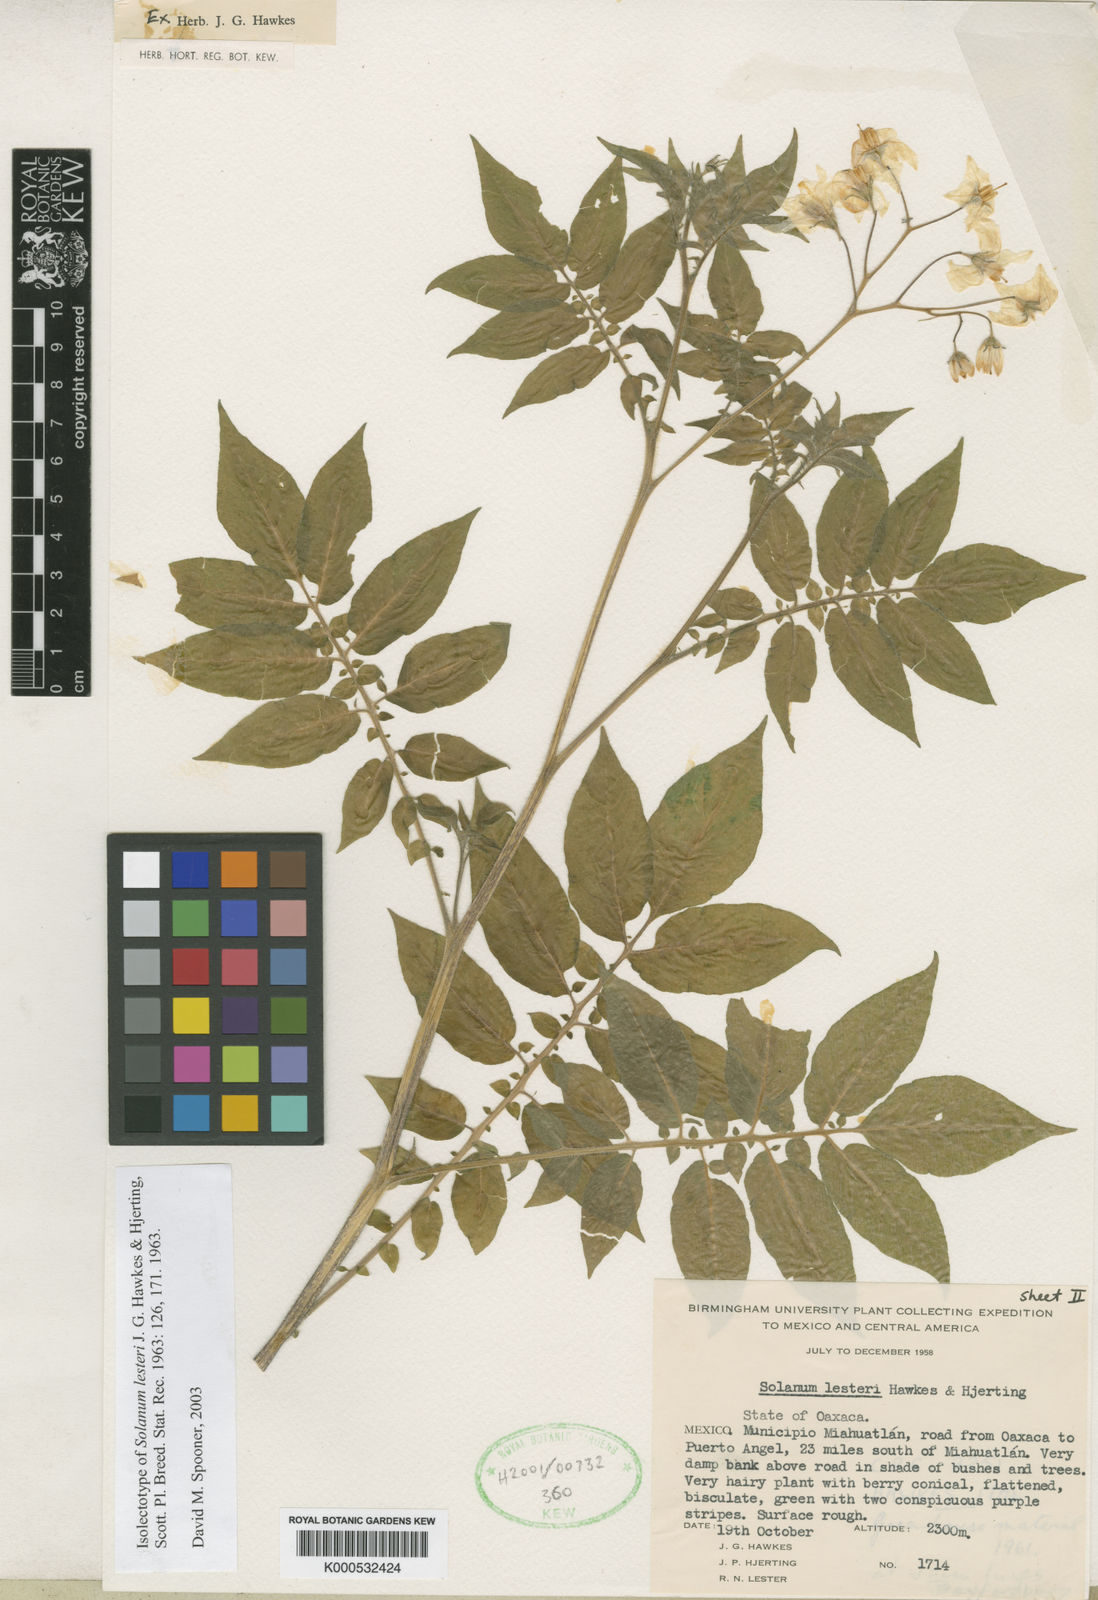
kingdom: Plantae
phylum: Tracheophyta
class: Magnoliopsida
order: Solanales
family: Solanaceae
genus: Solanum
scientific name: Solanum lesteri
